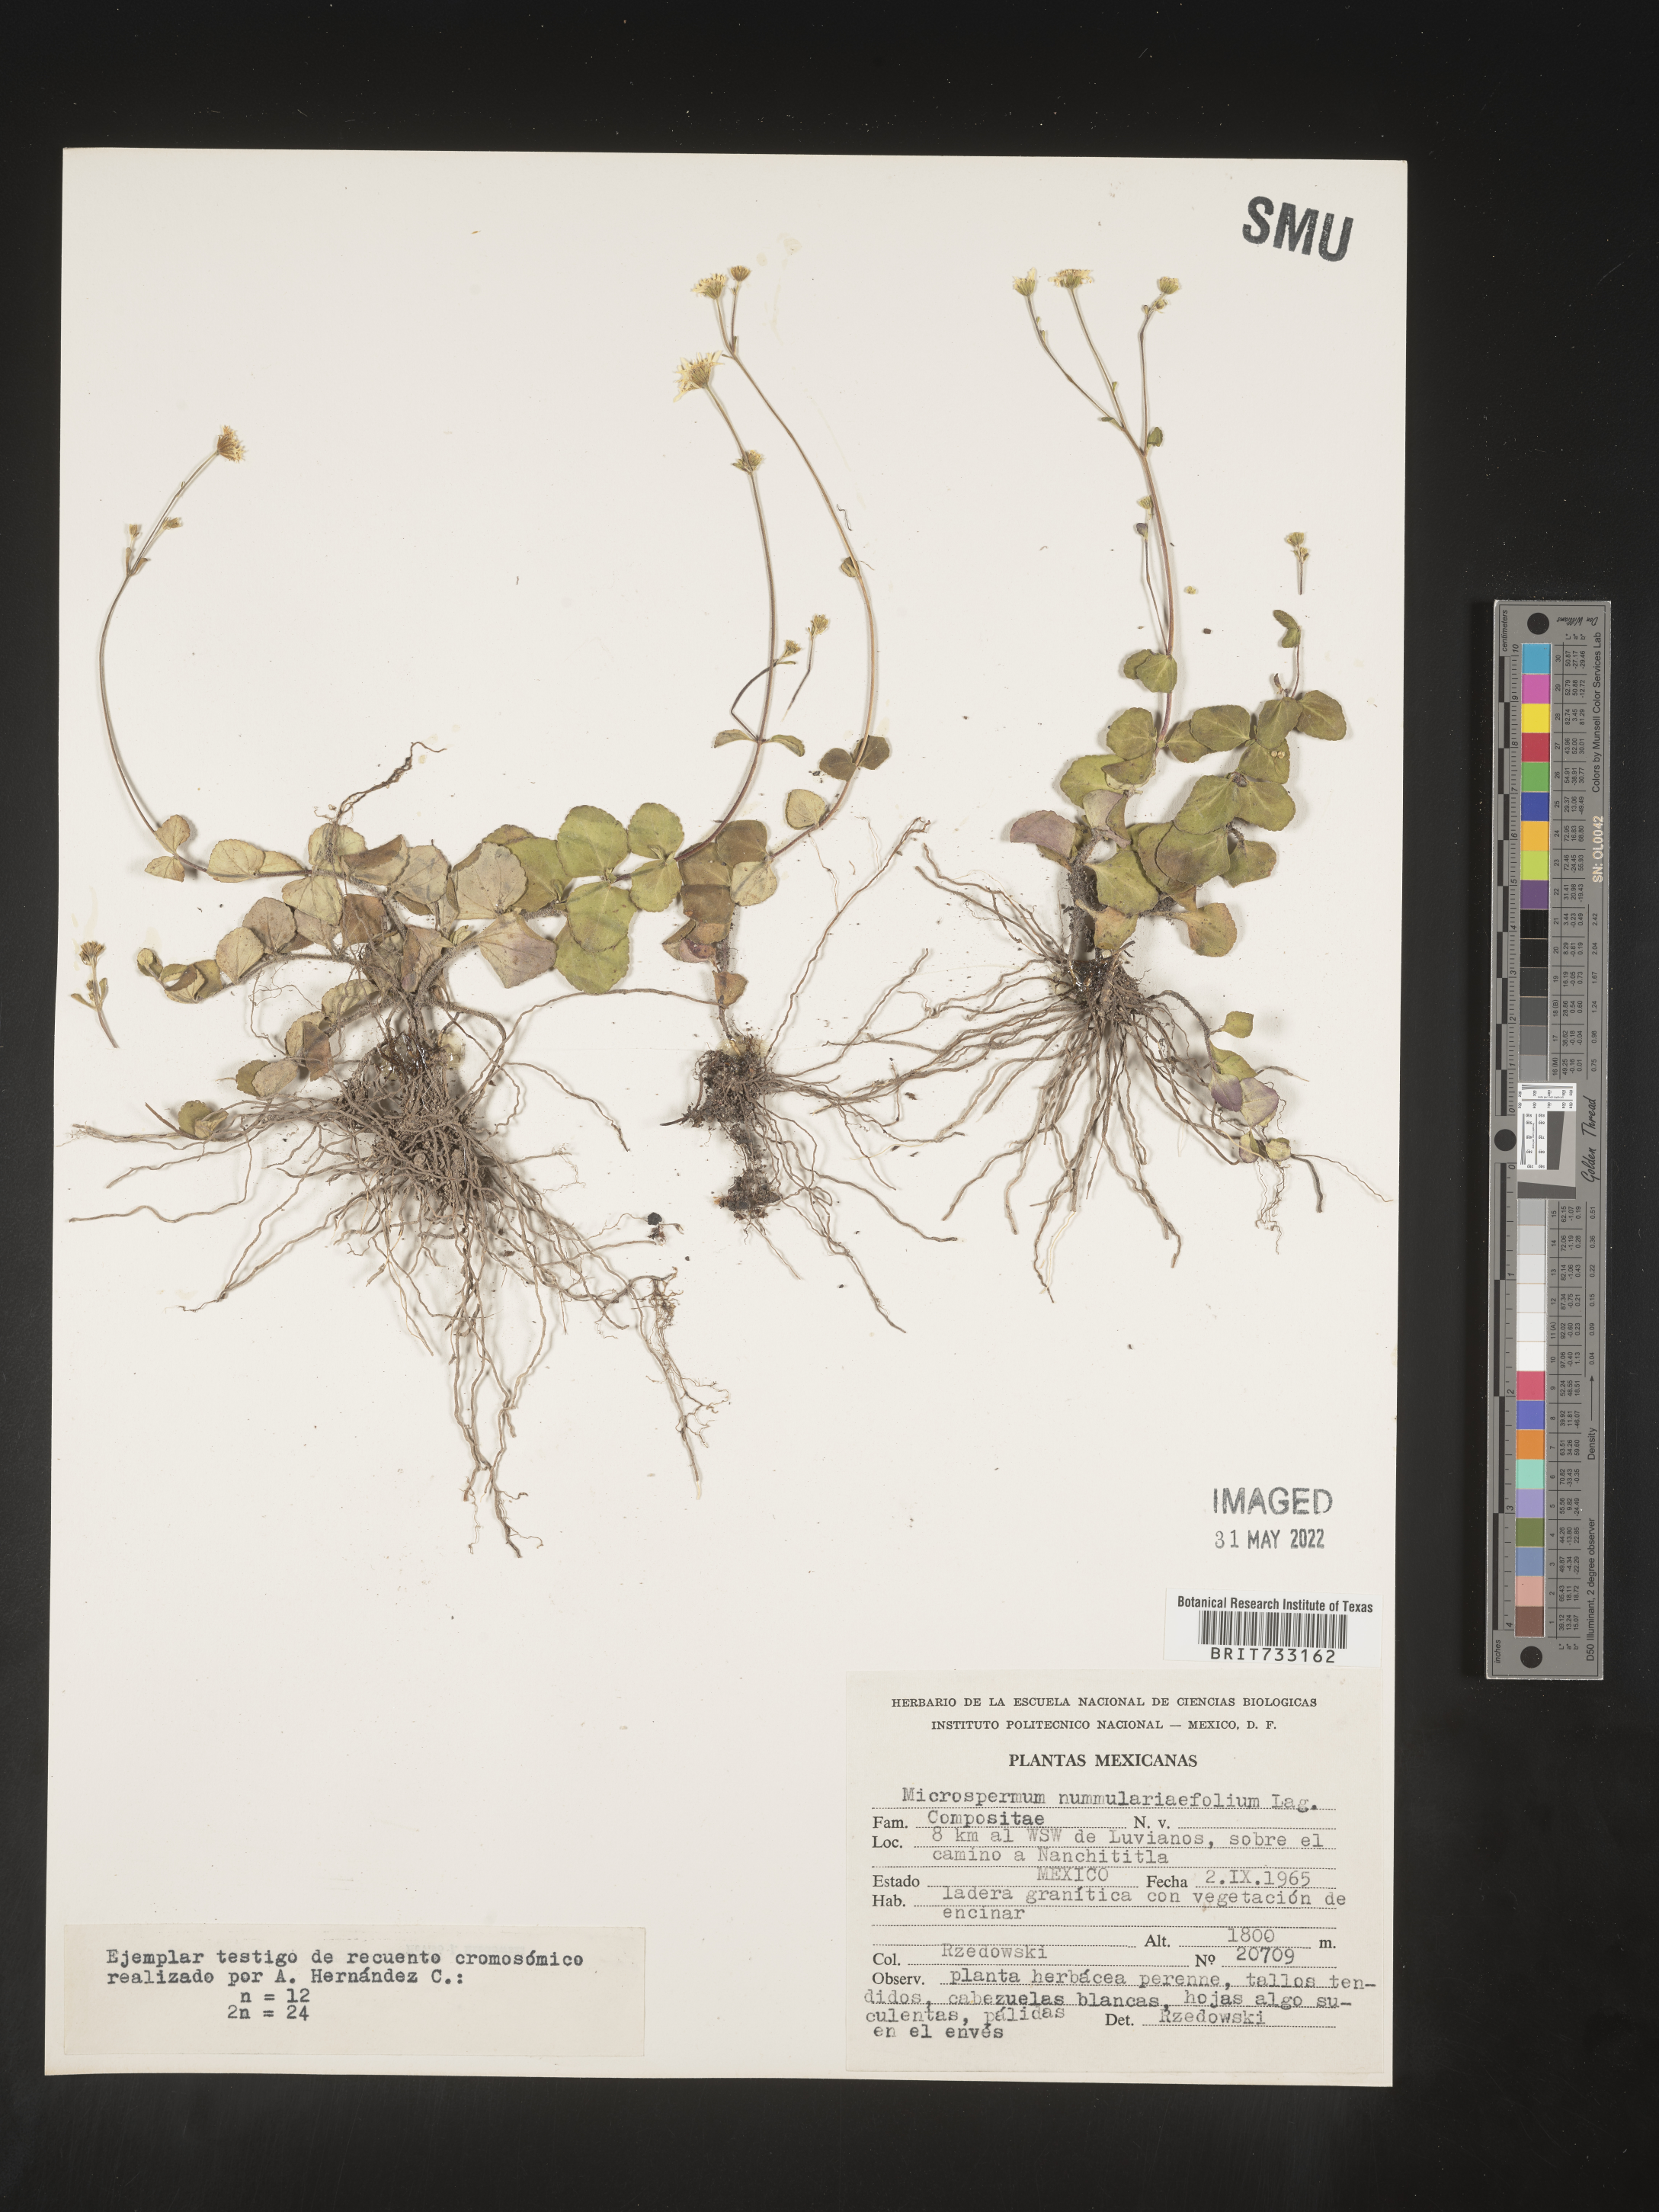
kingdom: Plantae
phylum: Tracheophyta
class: Magnoliopsida
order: Asterales
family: Asteraceae
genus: Microspermum
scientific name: Microspermum
